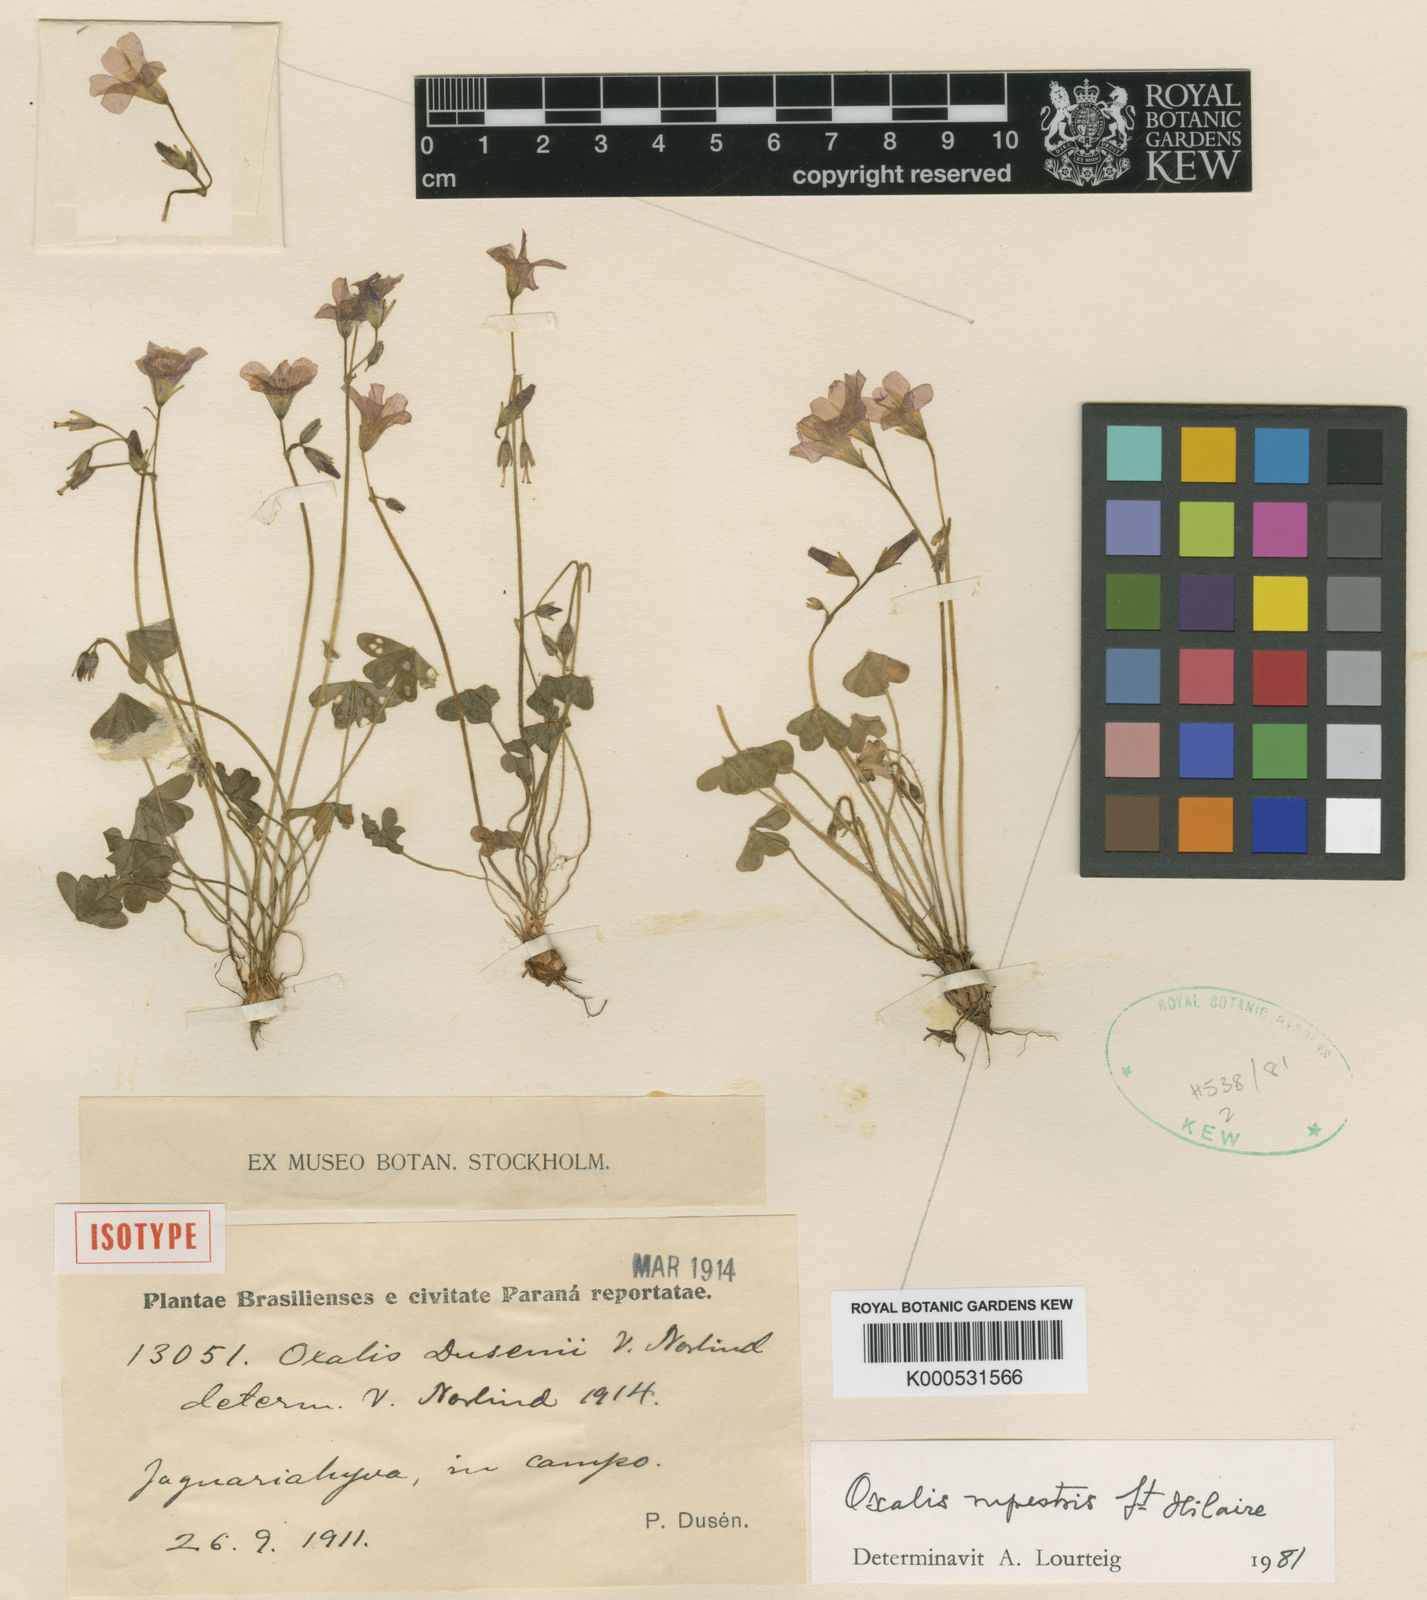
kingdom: Plantae
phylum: Tracheophyta
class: Magnoliopsida
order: Oxalidales
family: Oxalidaceae
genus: Oxalis
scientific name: Oxalis rupestris
